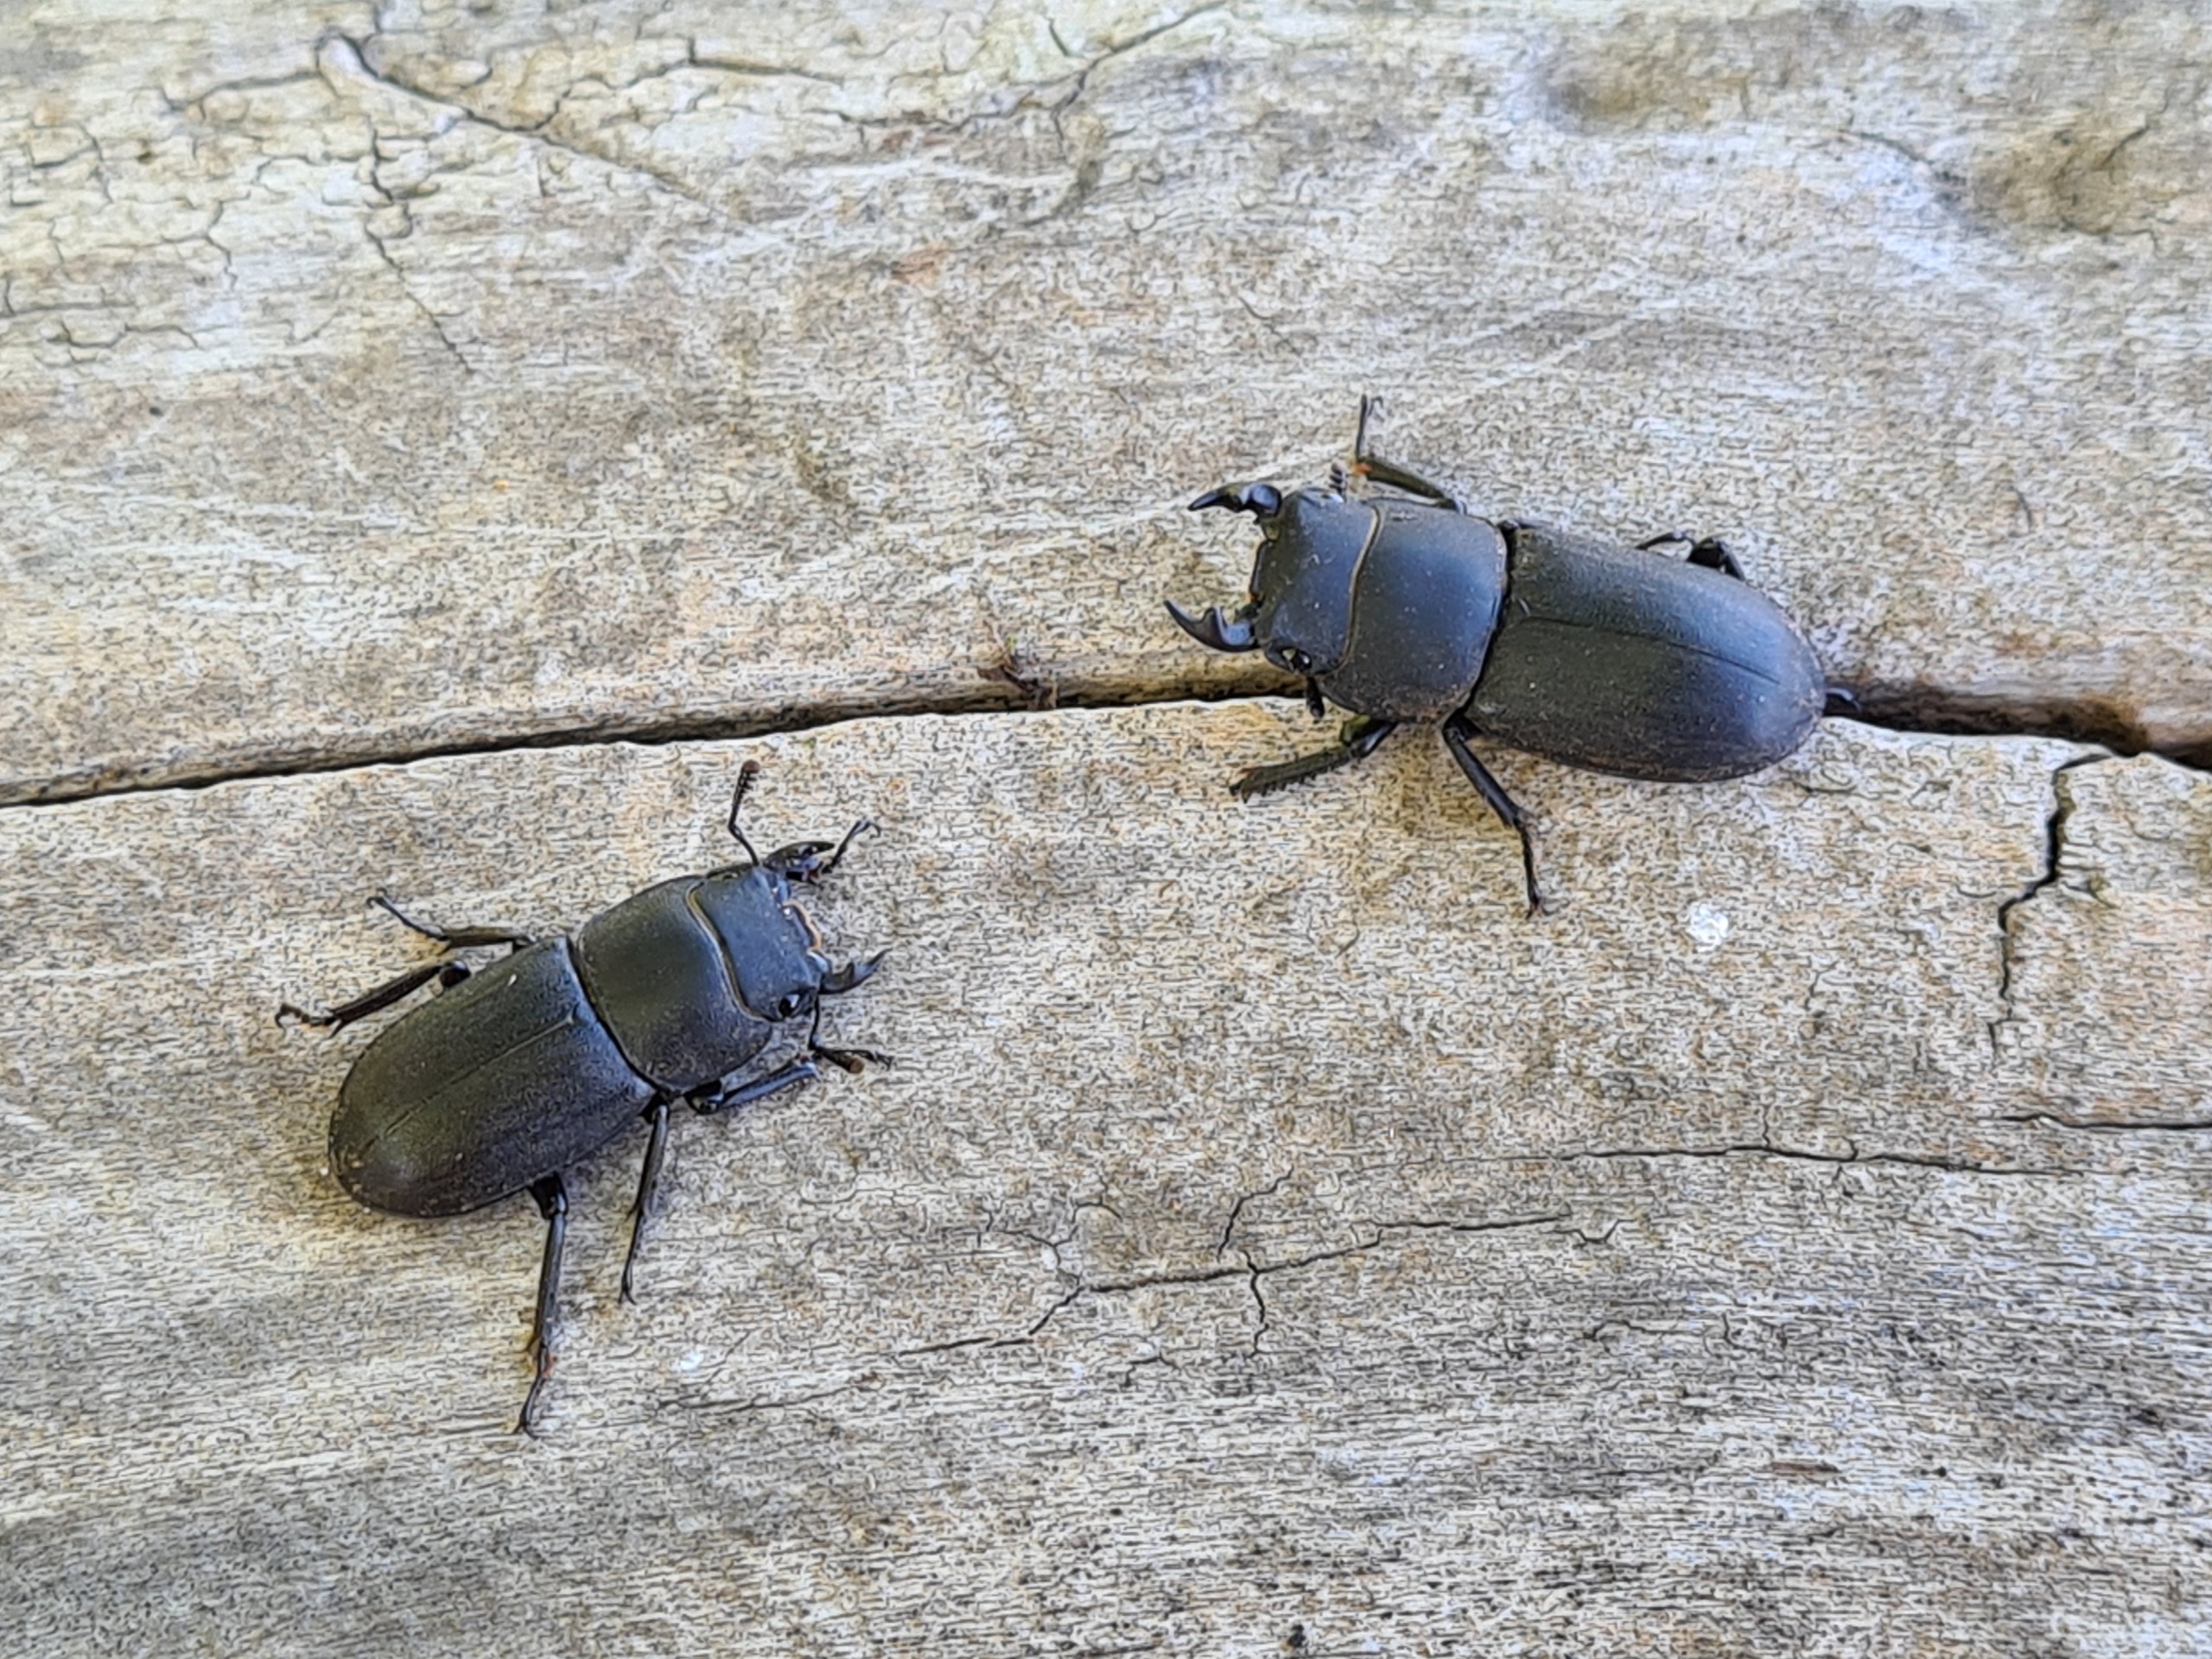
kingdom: Animalia
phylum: Arthropoda
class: Insecta
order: Coleoptera
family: Lucanidae
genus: Dorcus
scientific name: Dorcus parallelipipedus
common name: Bøghjort
